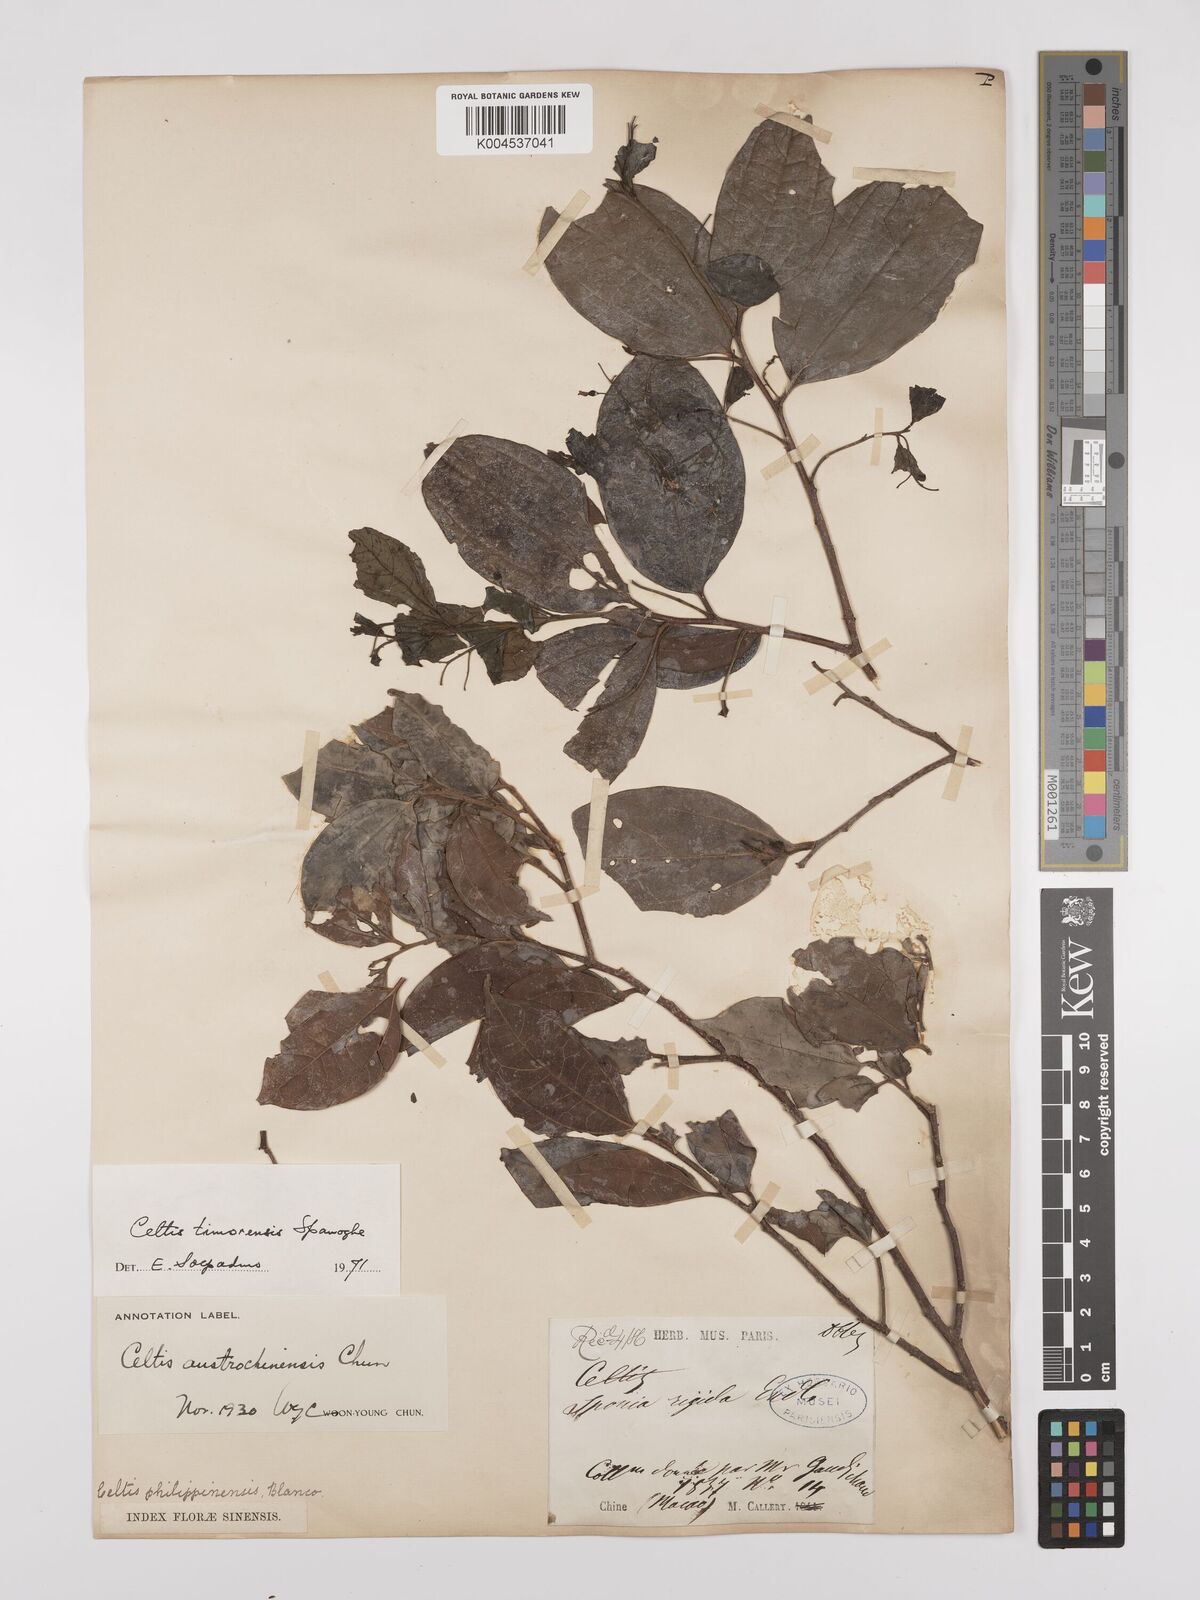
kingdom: Plantae
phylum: Tracheophyta
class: Magnoliopsida
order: Rosales
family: Cannabaceae
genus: Celtis
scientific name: Celtis timorensis
